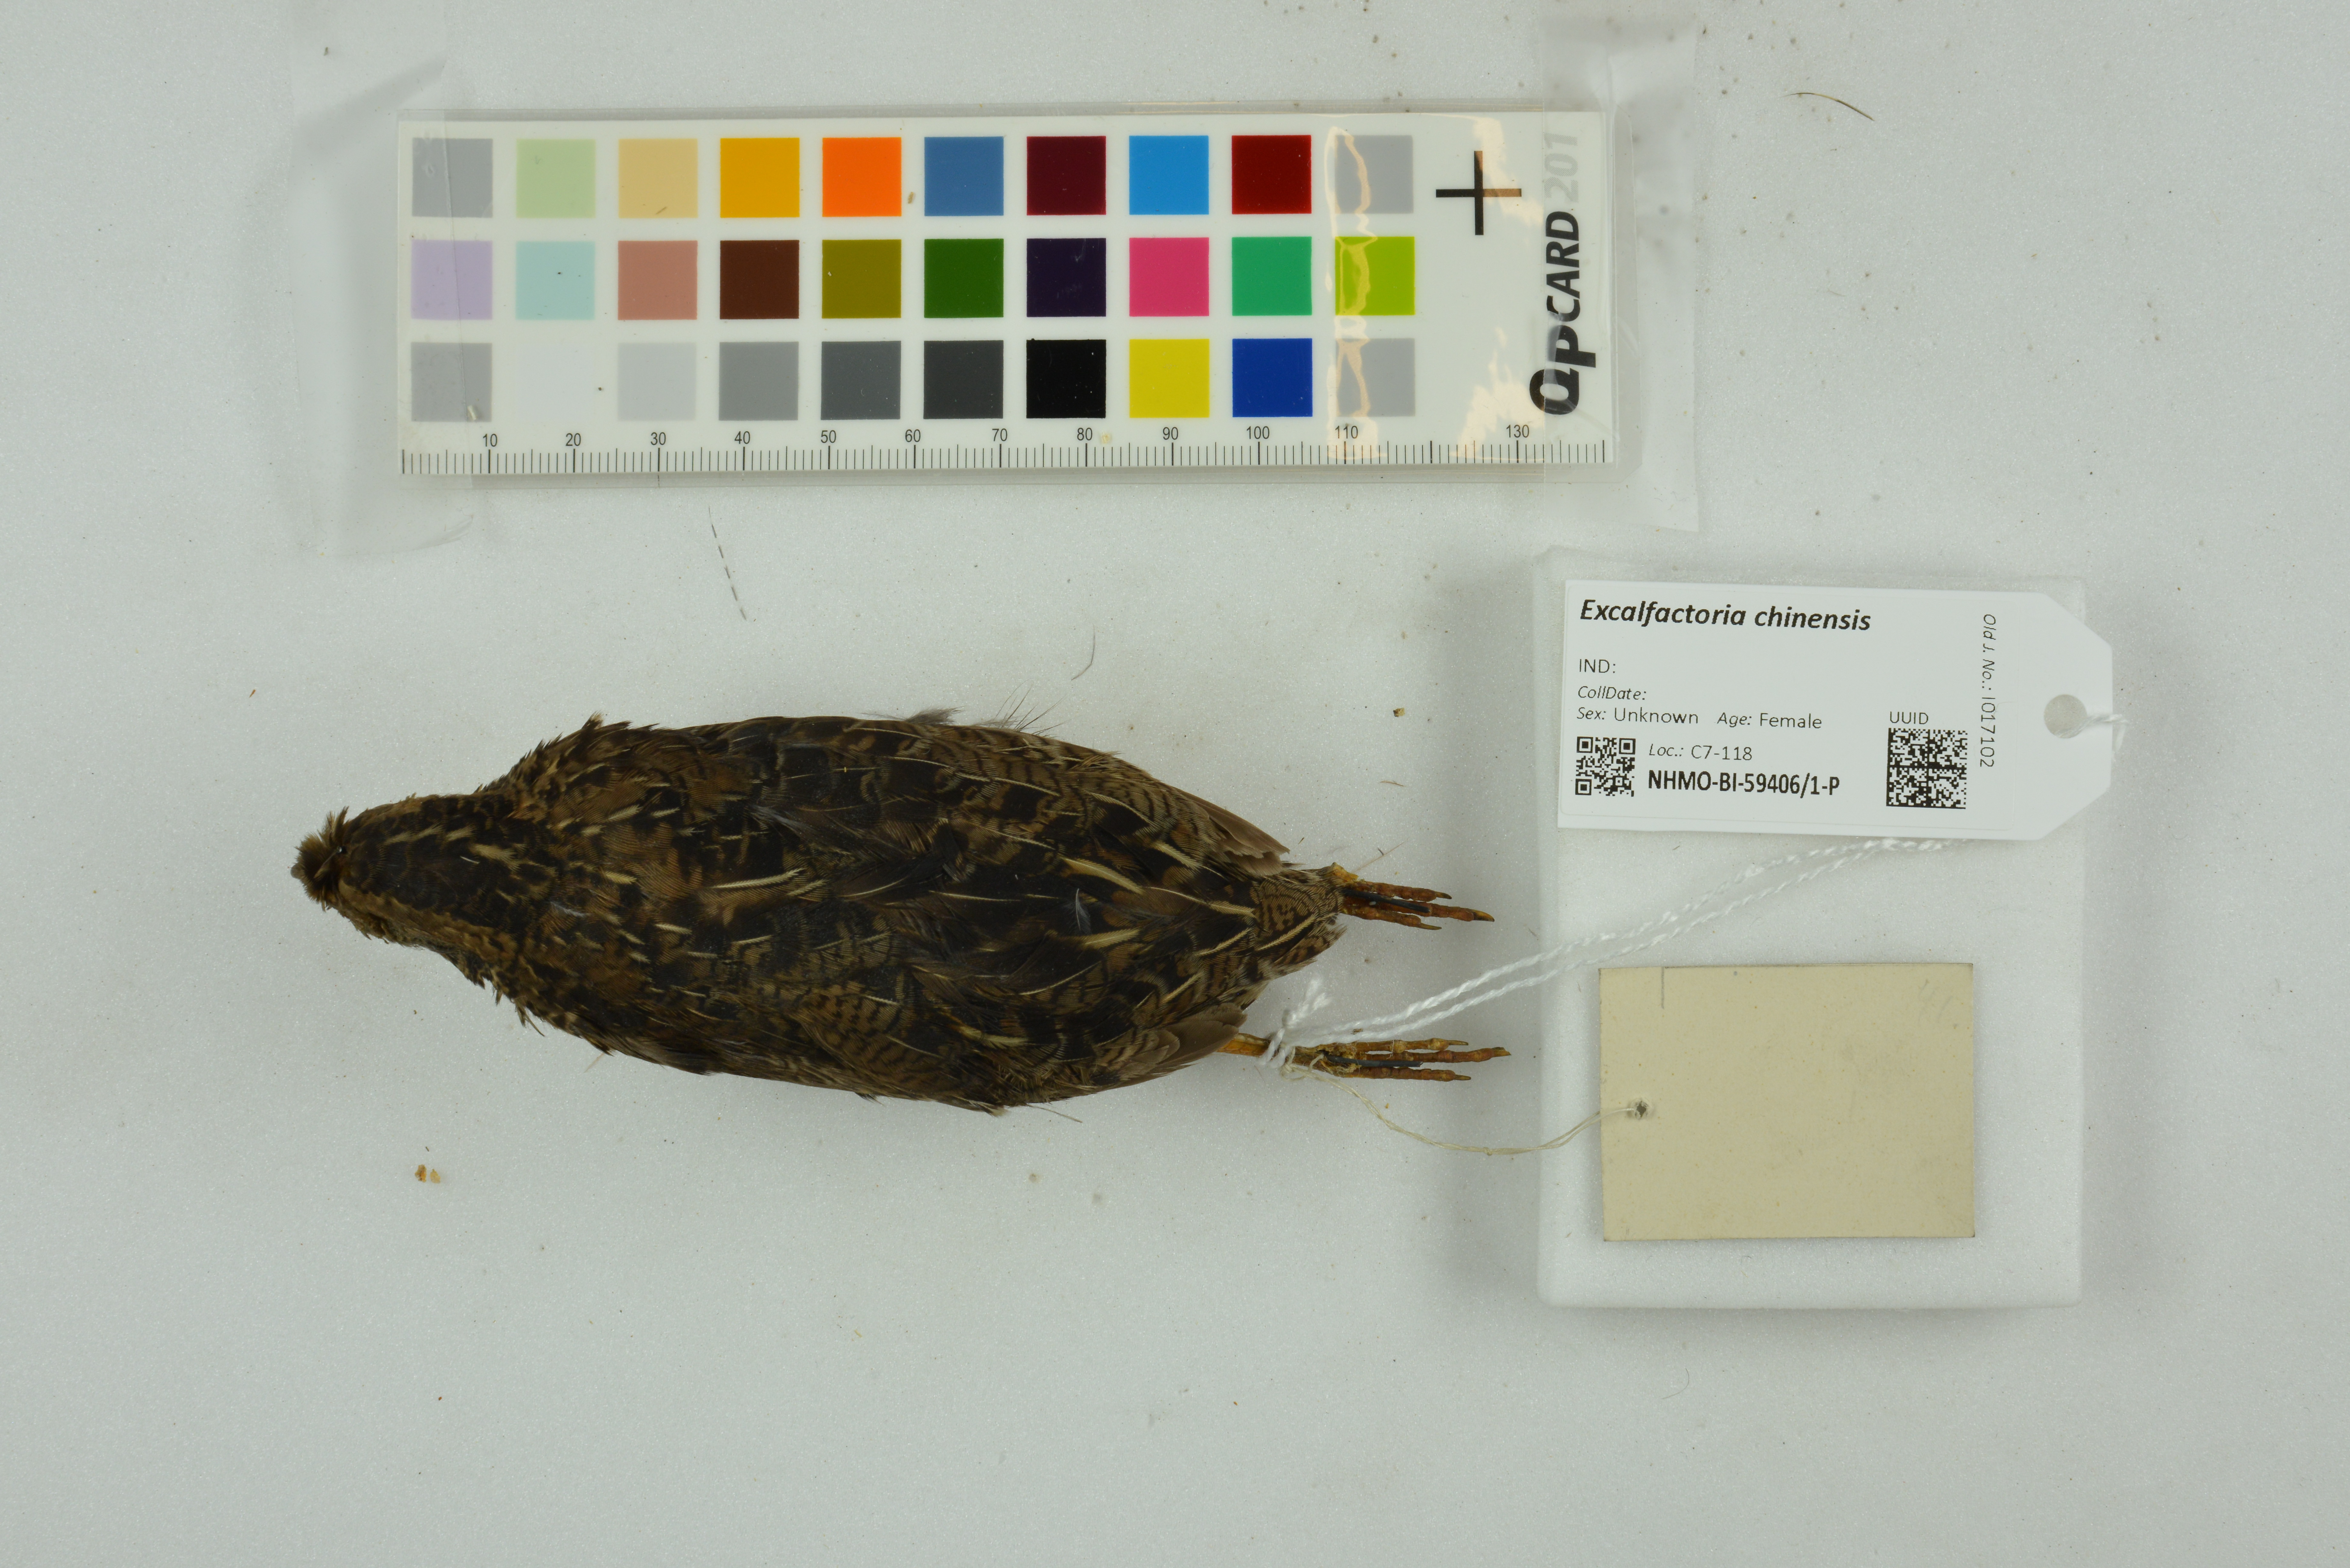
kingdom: Animalia
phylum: Chordata
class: Aves
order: Galliformes
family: Phasianidae
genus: Synoicus
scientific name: Synoicus chinensis
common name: Blue-breasted quail
